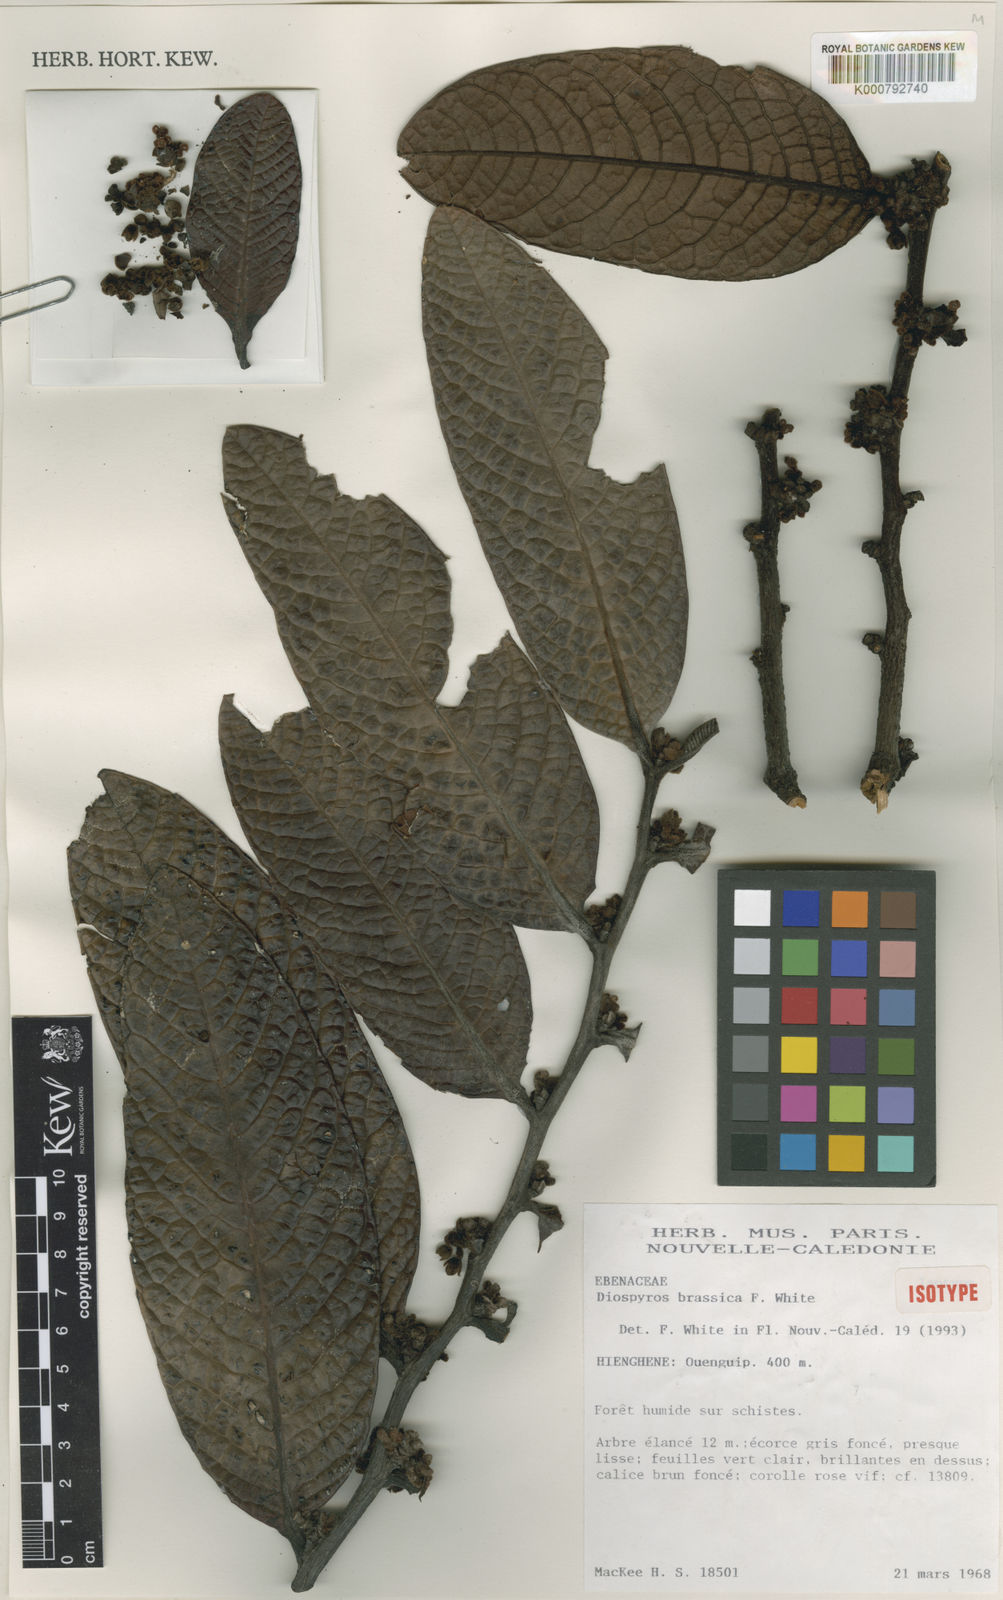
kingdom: Plantae
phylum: Tracheophyta
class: Magnoliopsida
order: Ericales
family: Ebenaceae
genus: Diospyros
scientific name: Diospyros brassica
